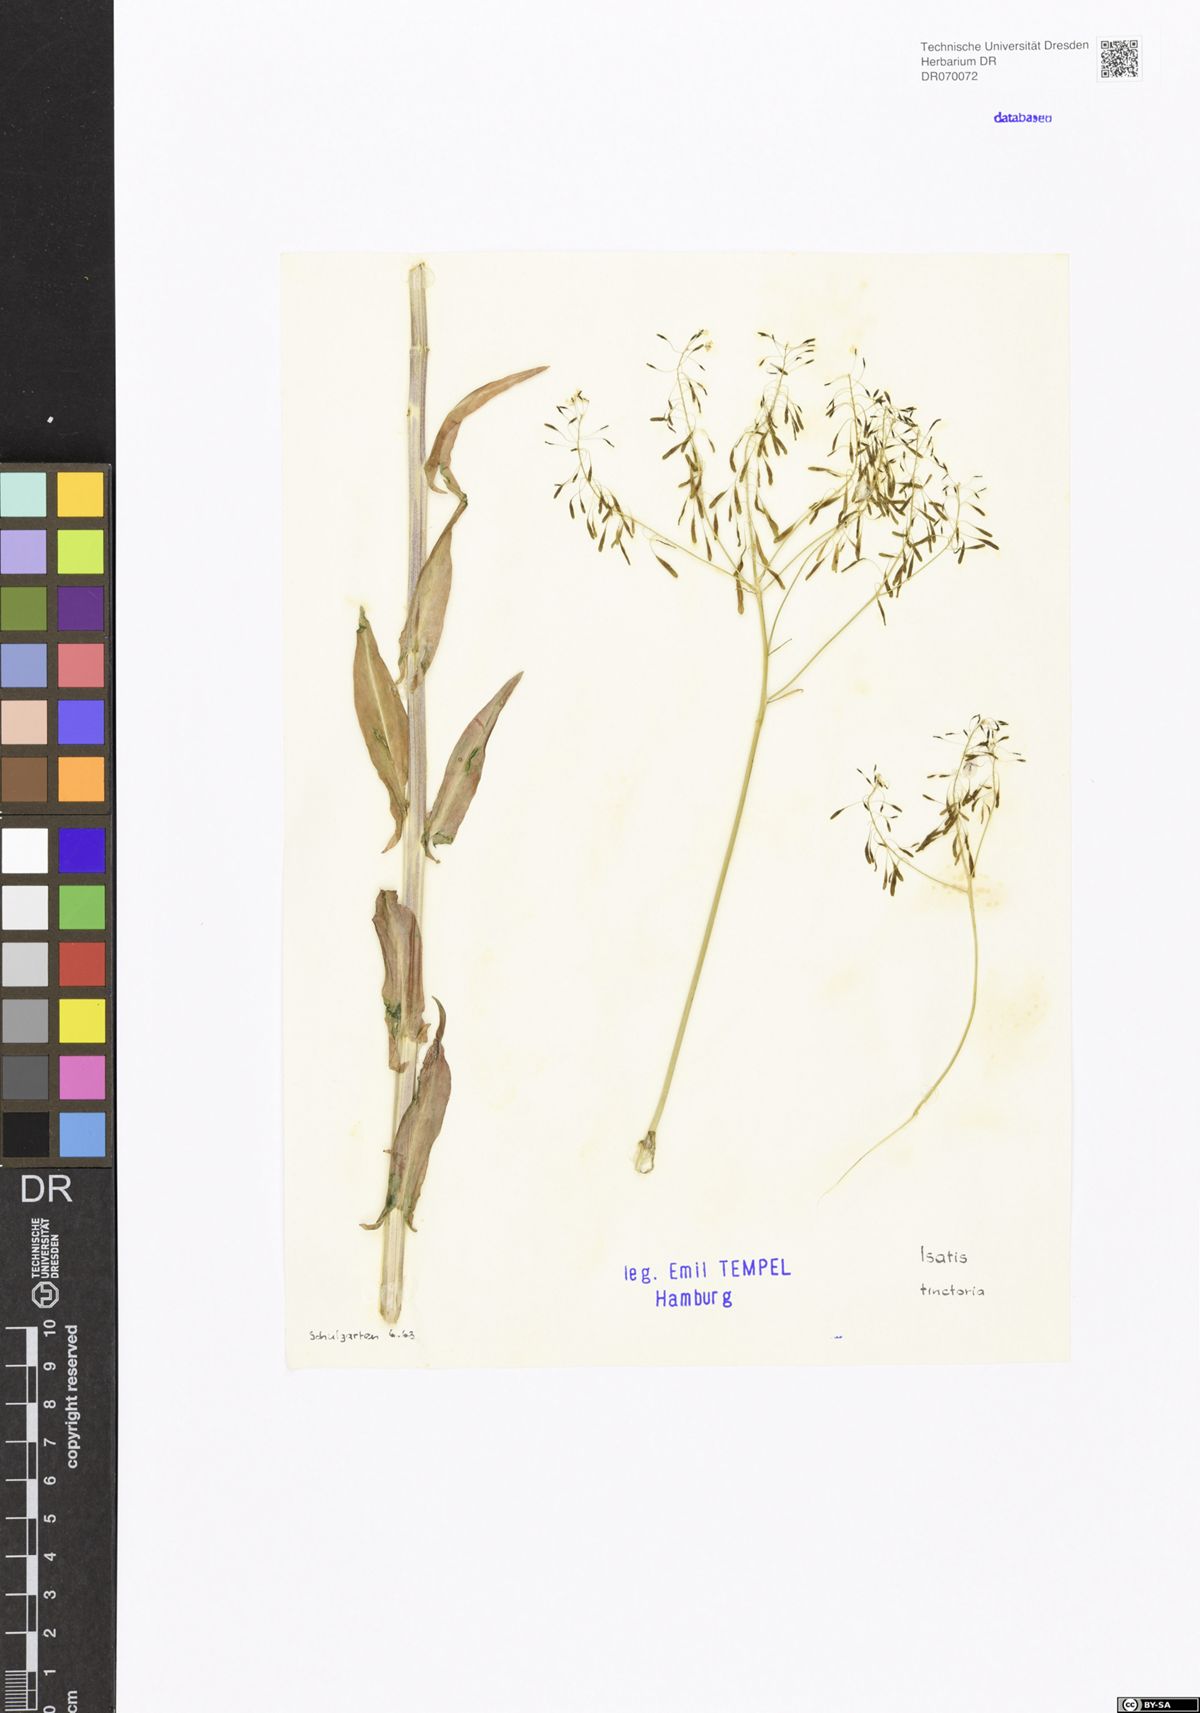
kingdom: Plantae
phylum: Tracheophyta
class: Magnoliopsida
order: Brassicales
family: Brassicaceae
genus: Isatis
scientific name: Isatis tinctoria
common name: Woad
